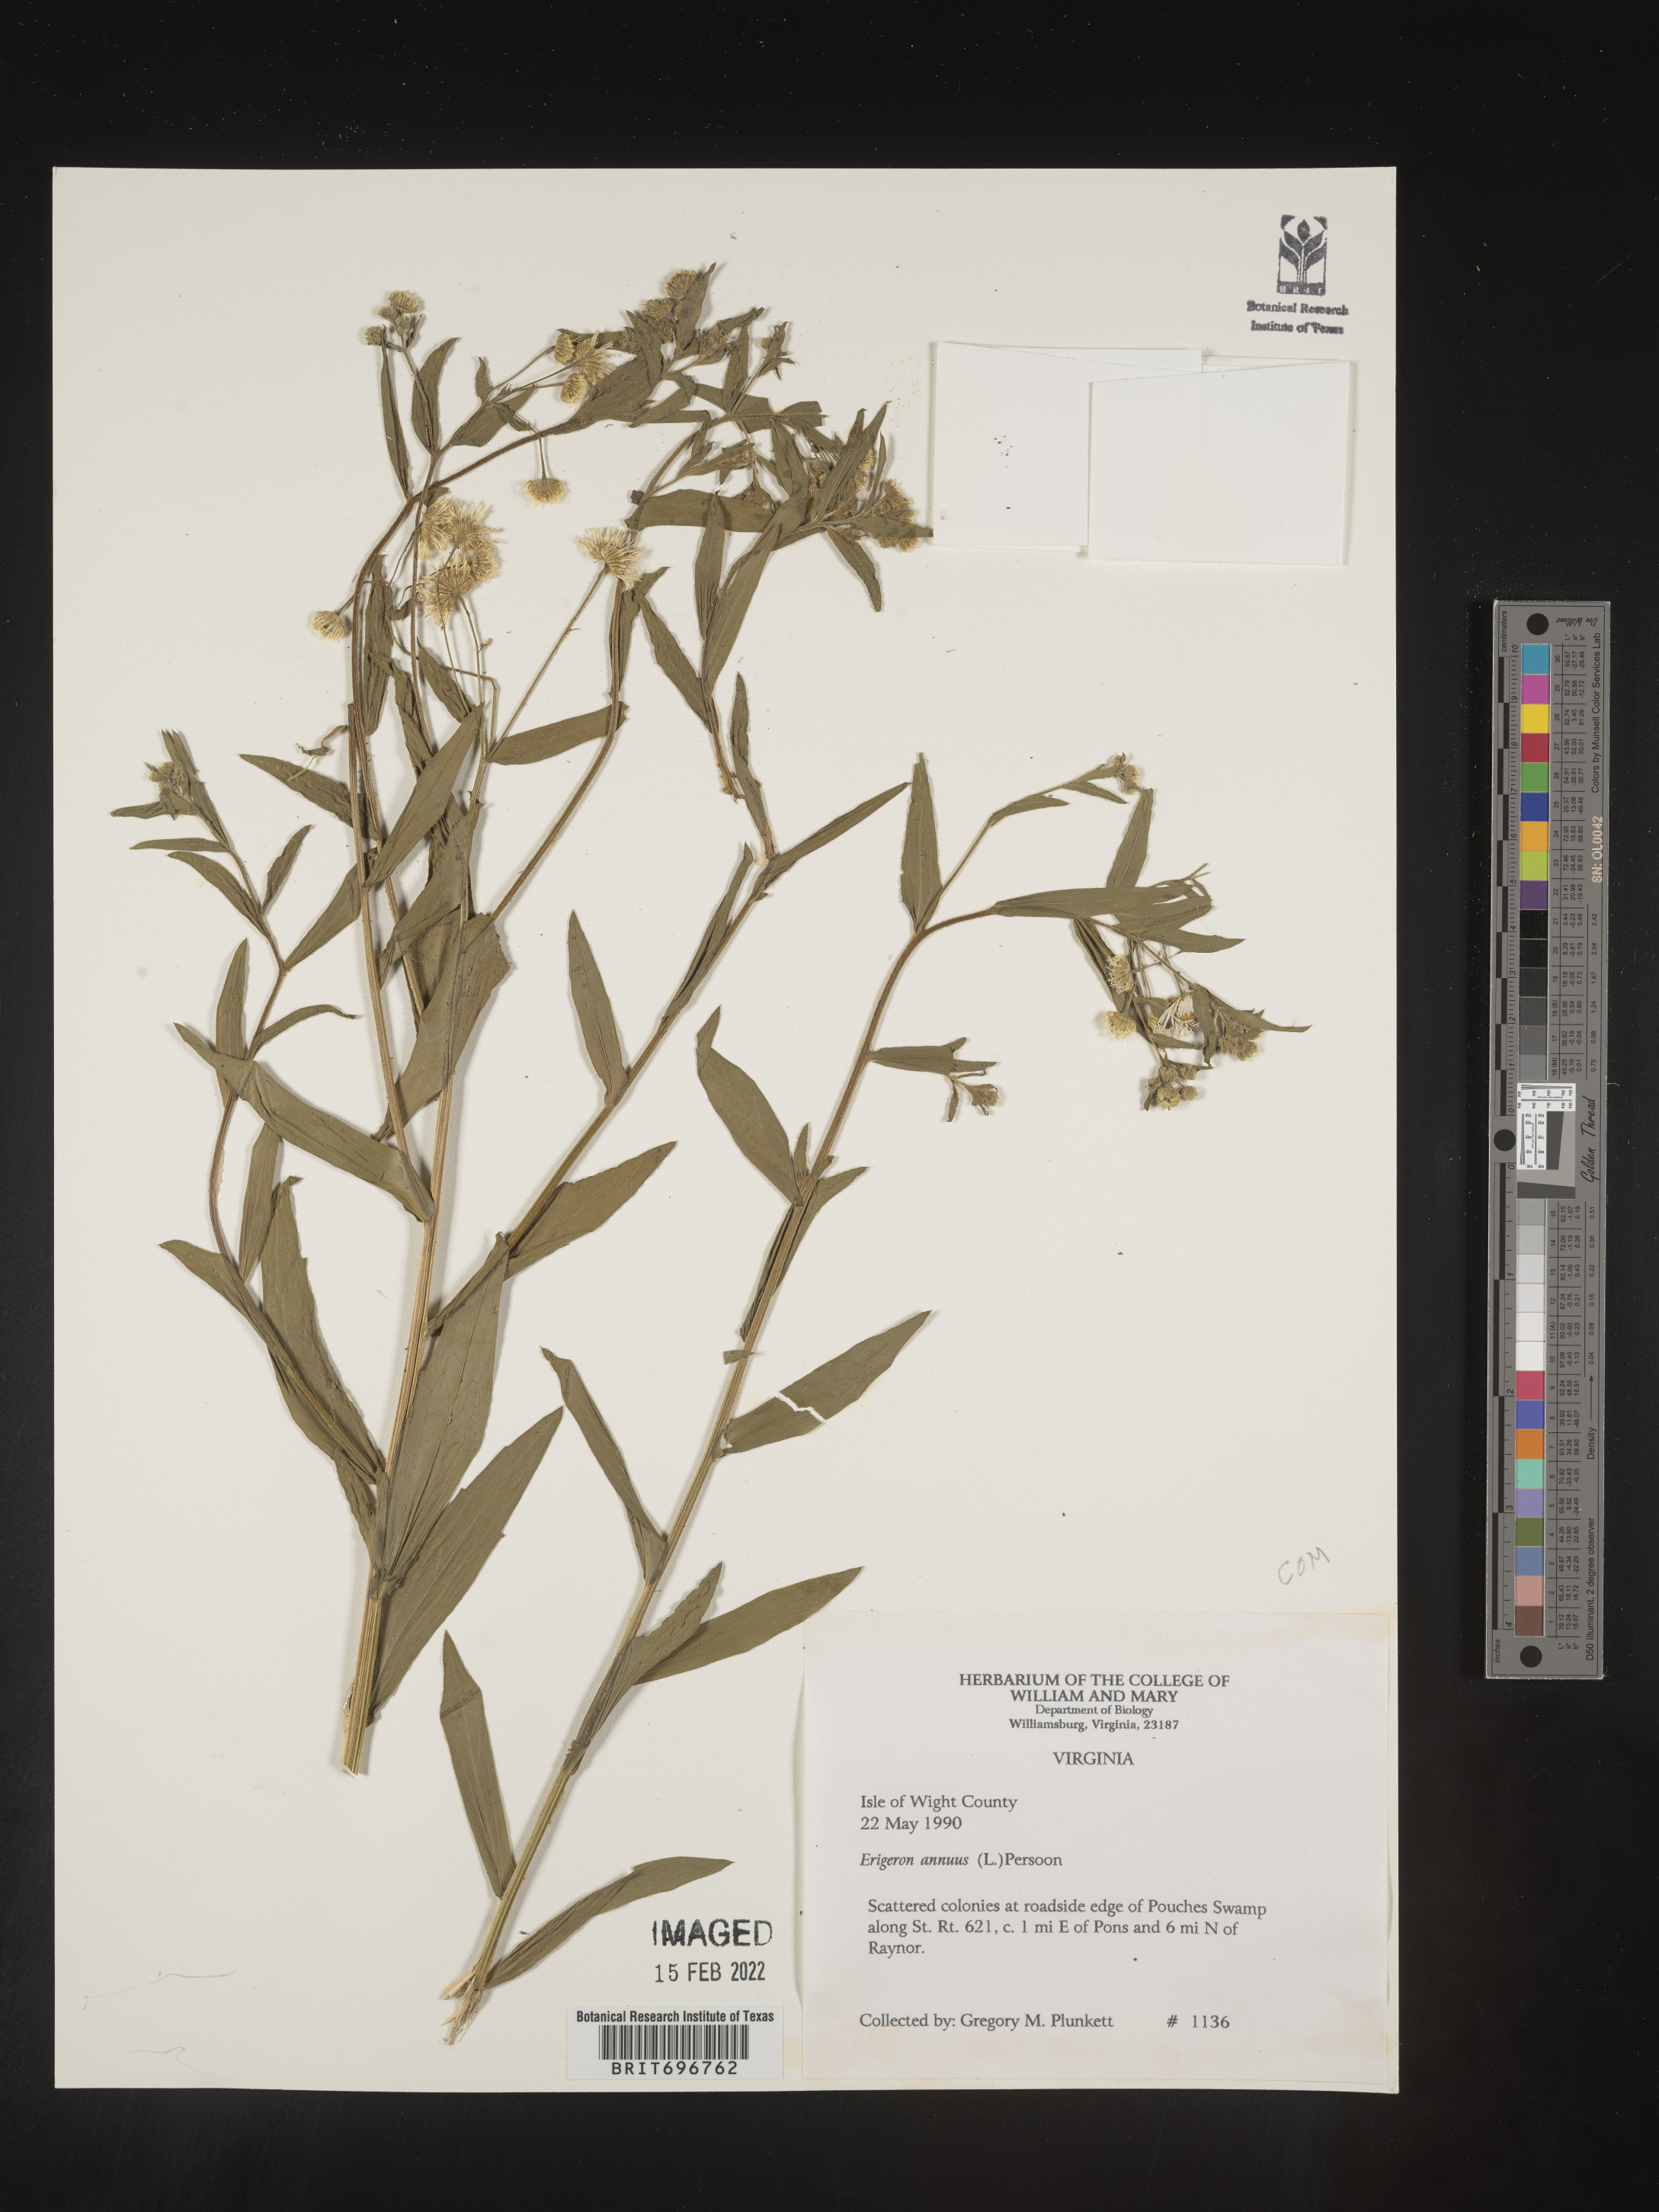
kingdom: Plantae
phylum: Tracheophyta
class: Magnoliopsida
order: Asterales
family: Asteraceae
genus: Erigeron
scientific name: Erigeron annuus
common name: Tall fleabane
